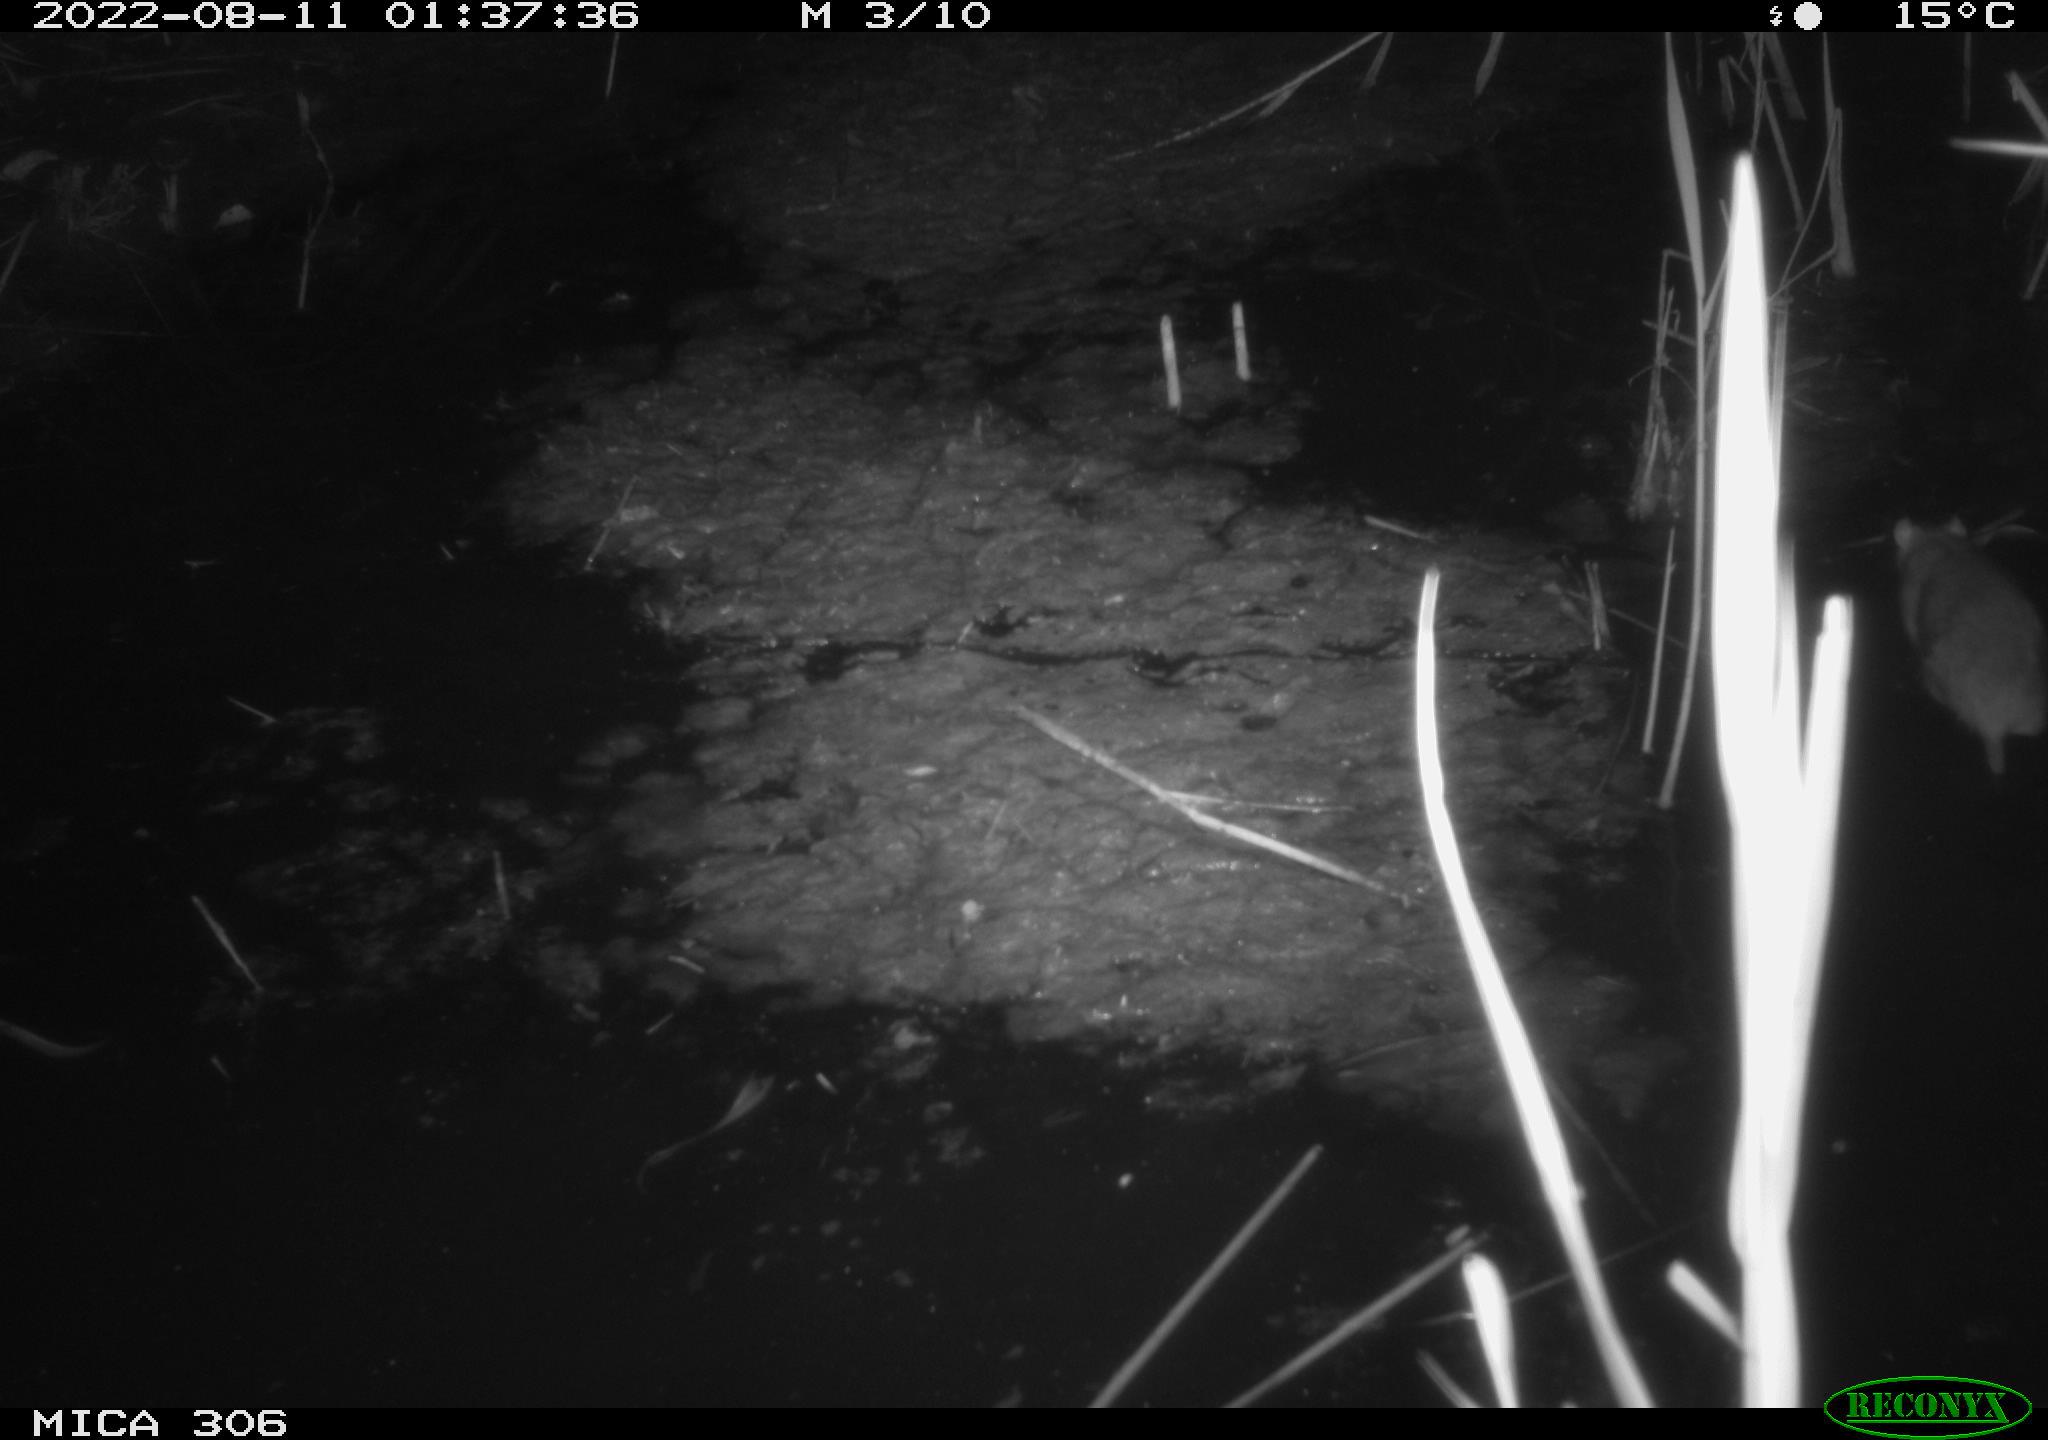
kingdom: Animalia
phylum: Chordata
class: Mammalia
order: Rodentia
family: Muridae
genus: Rattus
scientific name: Rattus norvegicus
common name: Brown rat
